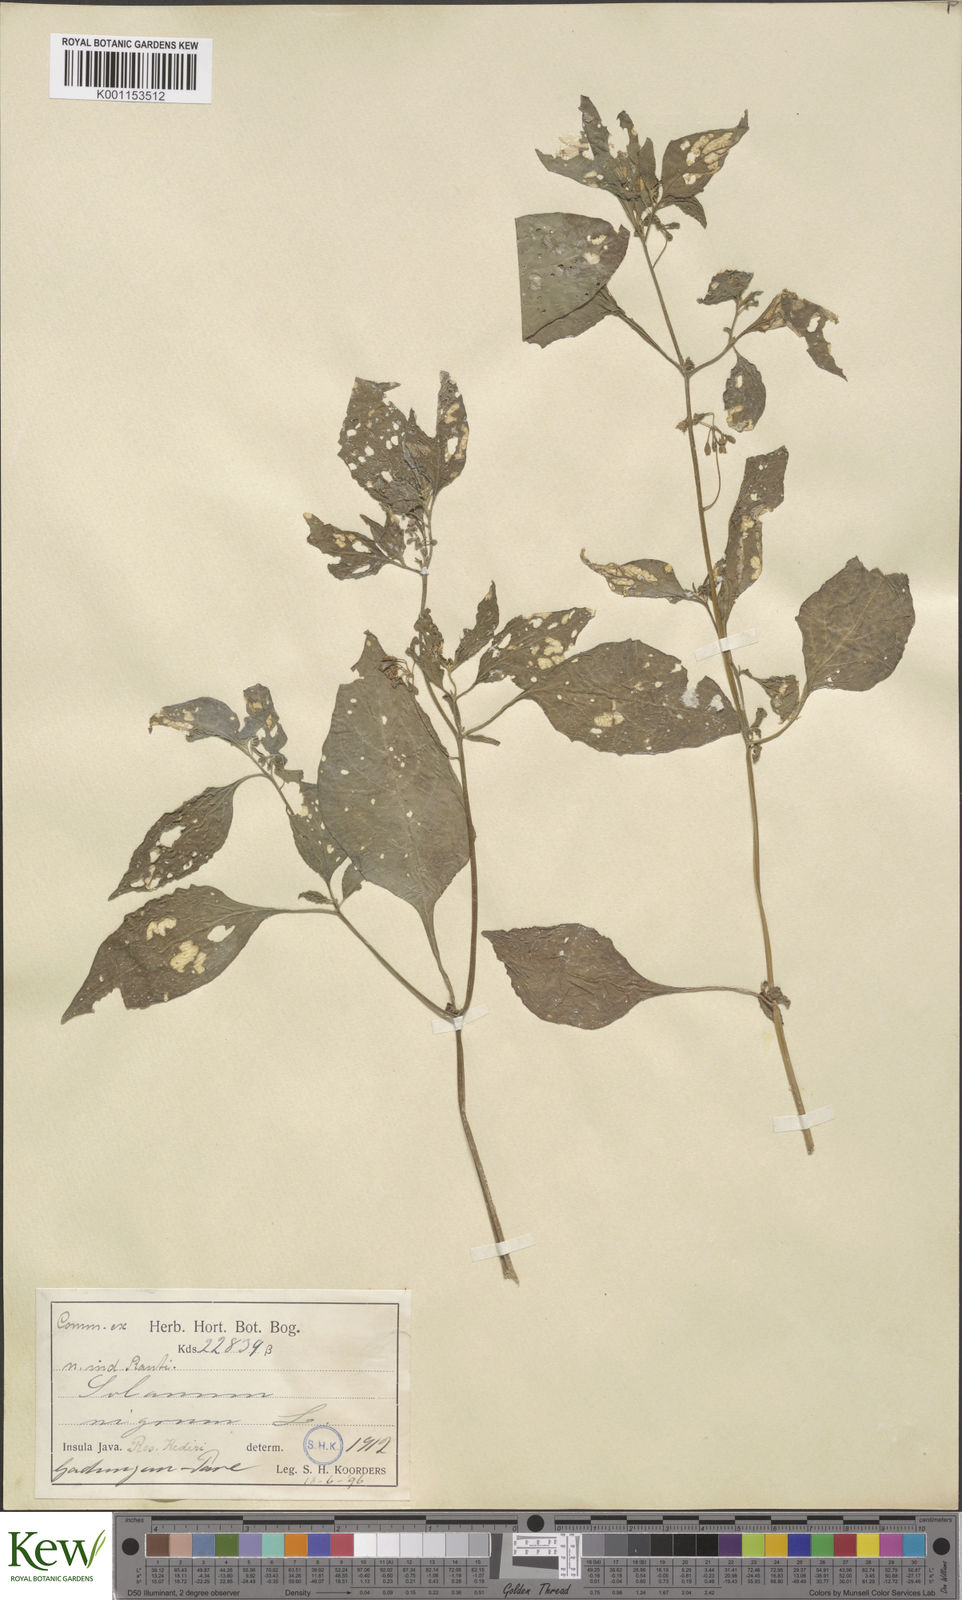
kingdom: Plantae
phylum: Tracheophyta
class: Magnoliopsida
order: Solanales
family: Solanaceae
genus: Solanum
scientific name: Solanum nigrum
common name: Black nightshade
